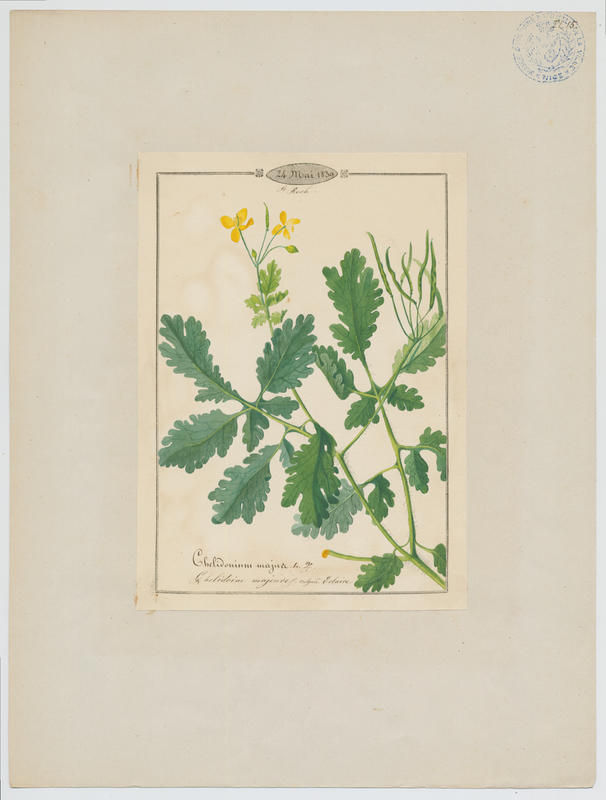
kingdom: Plantae
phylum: Tracheophyta
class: Magnoliopsida
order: Ranunculales
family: Papaveraceae
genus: Chelidonium
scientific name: Chelidonium majus
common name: Greater celandine
